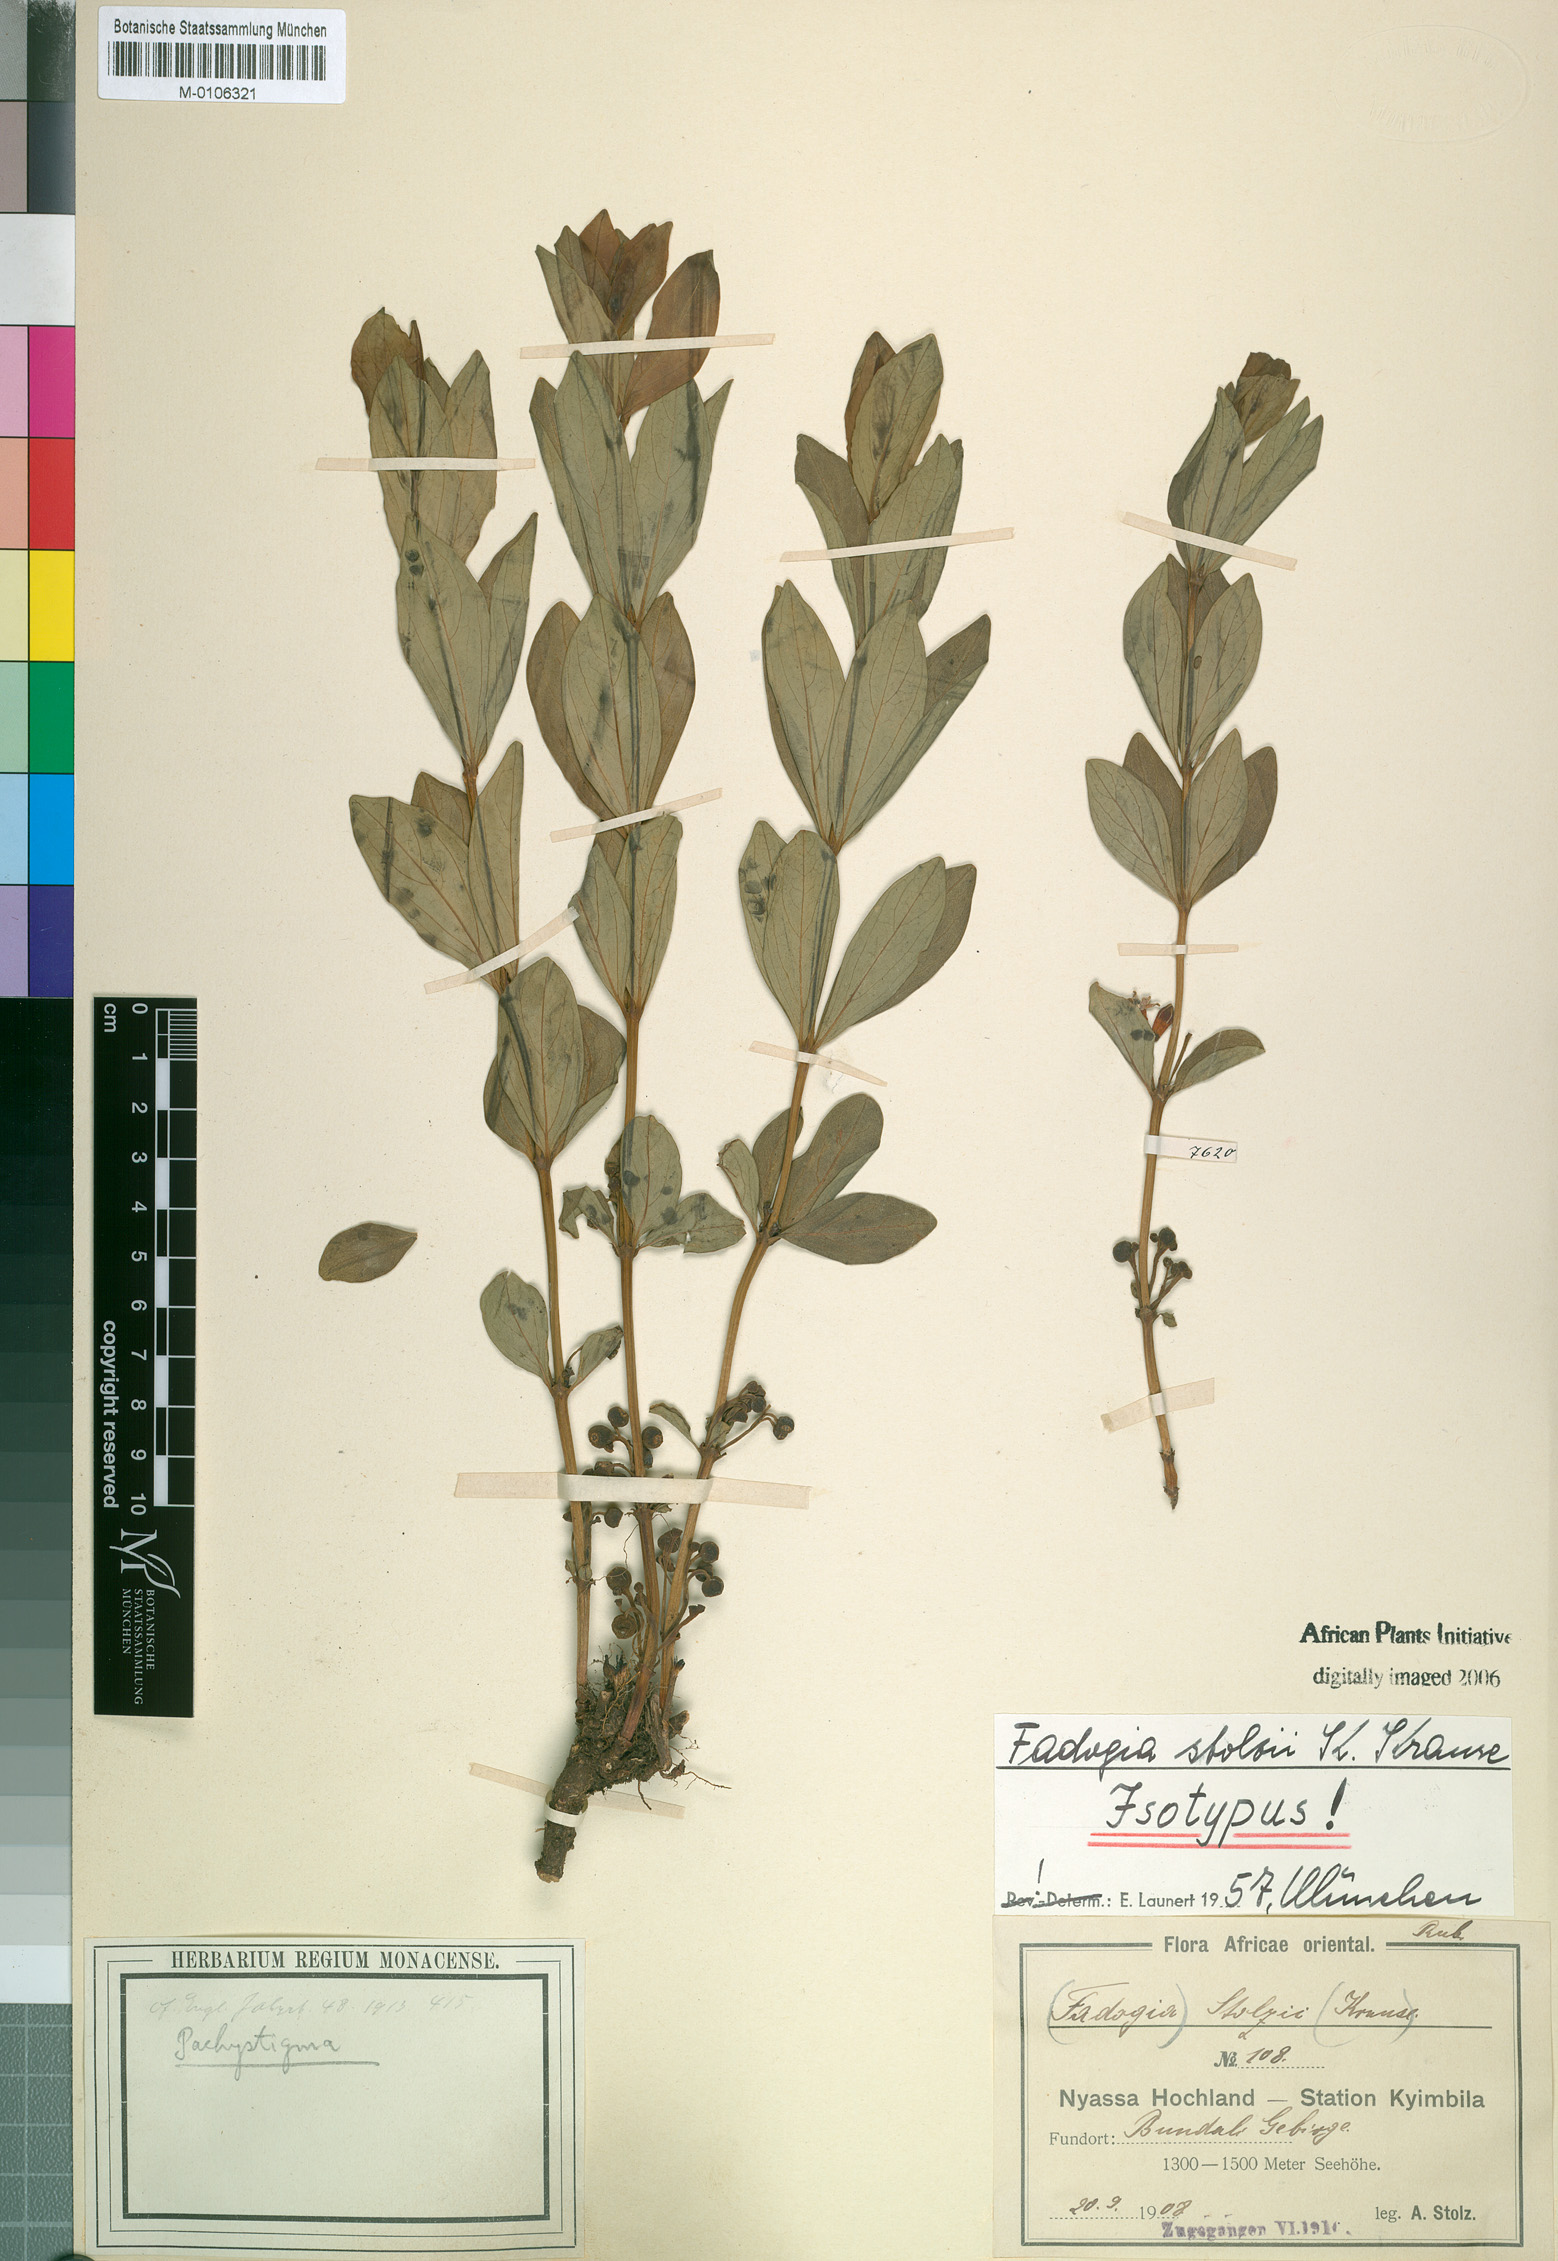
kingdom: Plantae
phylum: Tracheophyta
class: Magnoliopsida
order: Gentianales
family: Rubiaceae
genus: Fadogia
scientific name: Fadogia stenophylla
